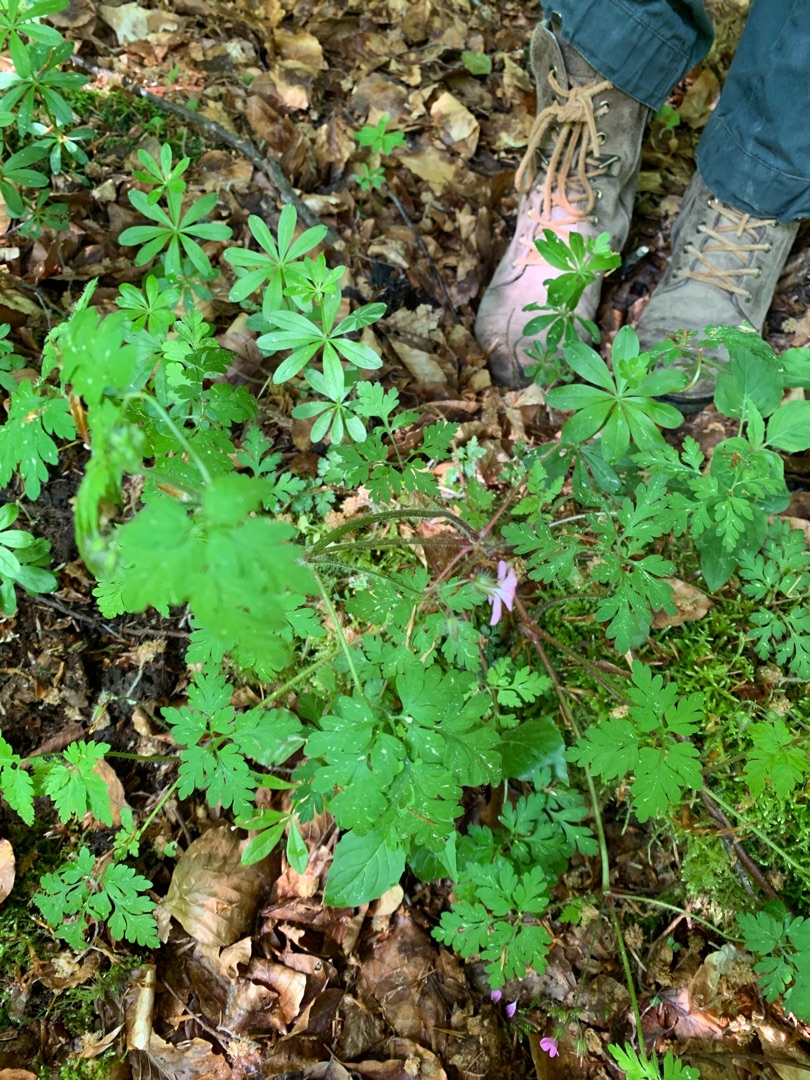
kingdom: Plantae
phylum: Tracheophyta
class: Magnoliopsida
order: Geraniales
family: Geraniaceae
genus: Geranium
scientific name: Geranium robertianum
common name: Stinkende storkenæb
